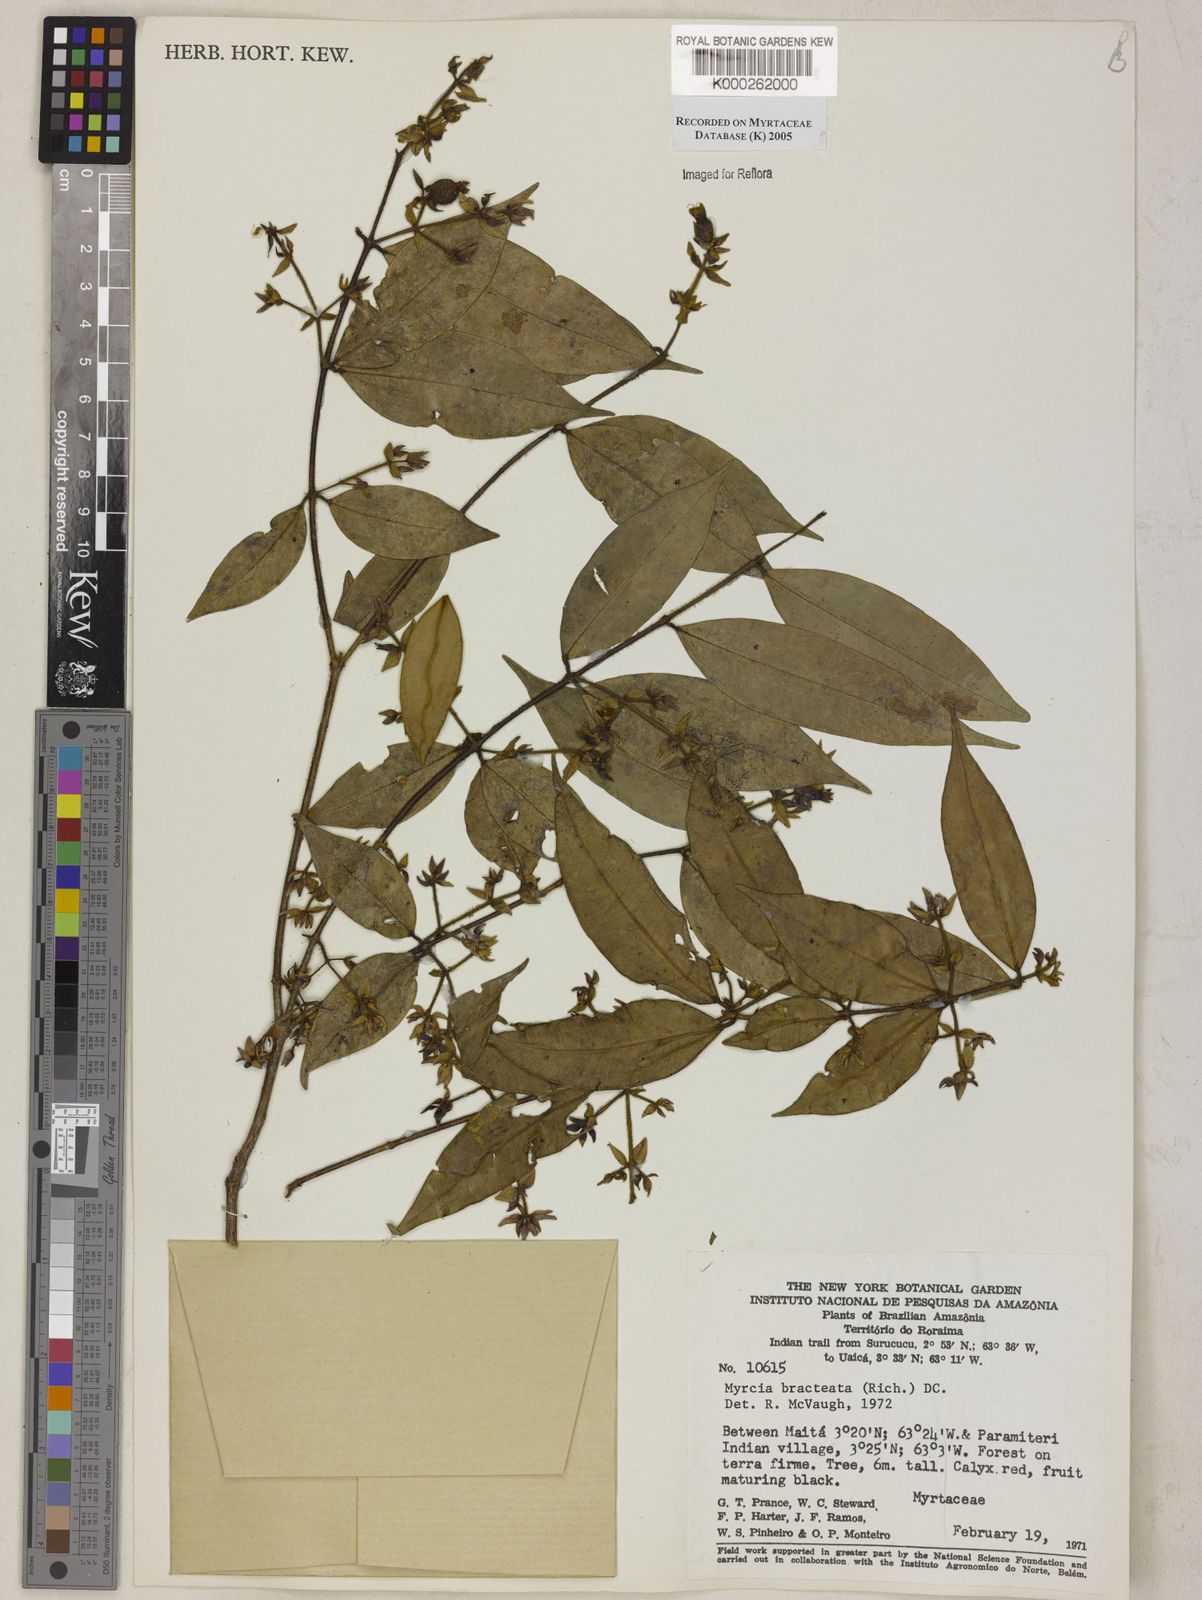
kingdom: Plantae
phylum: Tracheophyta
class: Magnoliopsida
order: Myrtales
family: Myrtaceae
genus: Myrcia
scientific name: Myrcia bracteata
